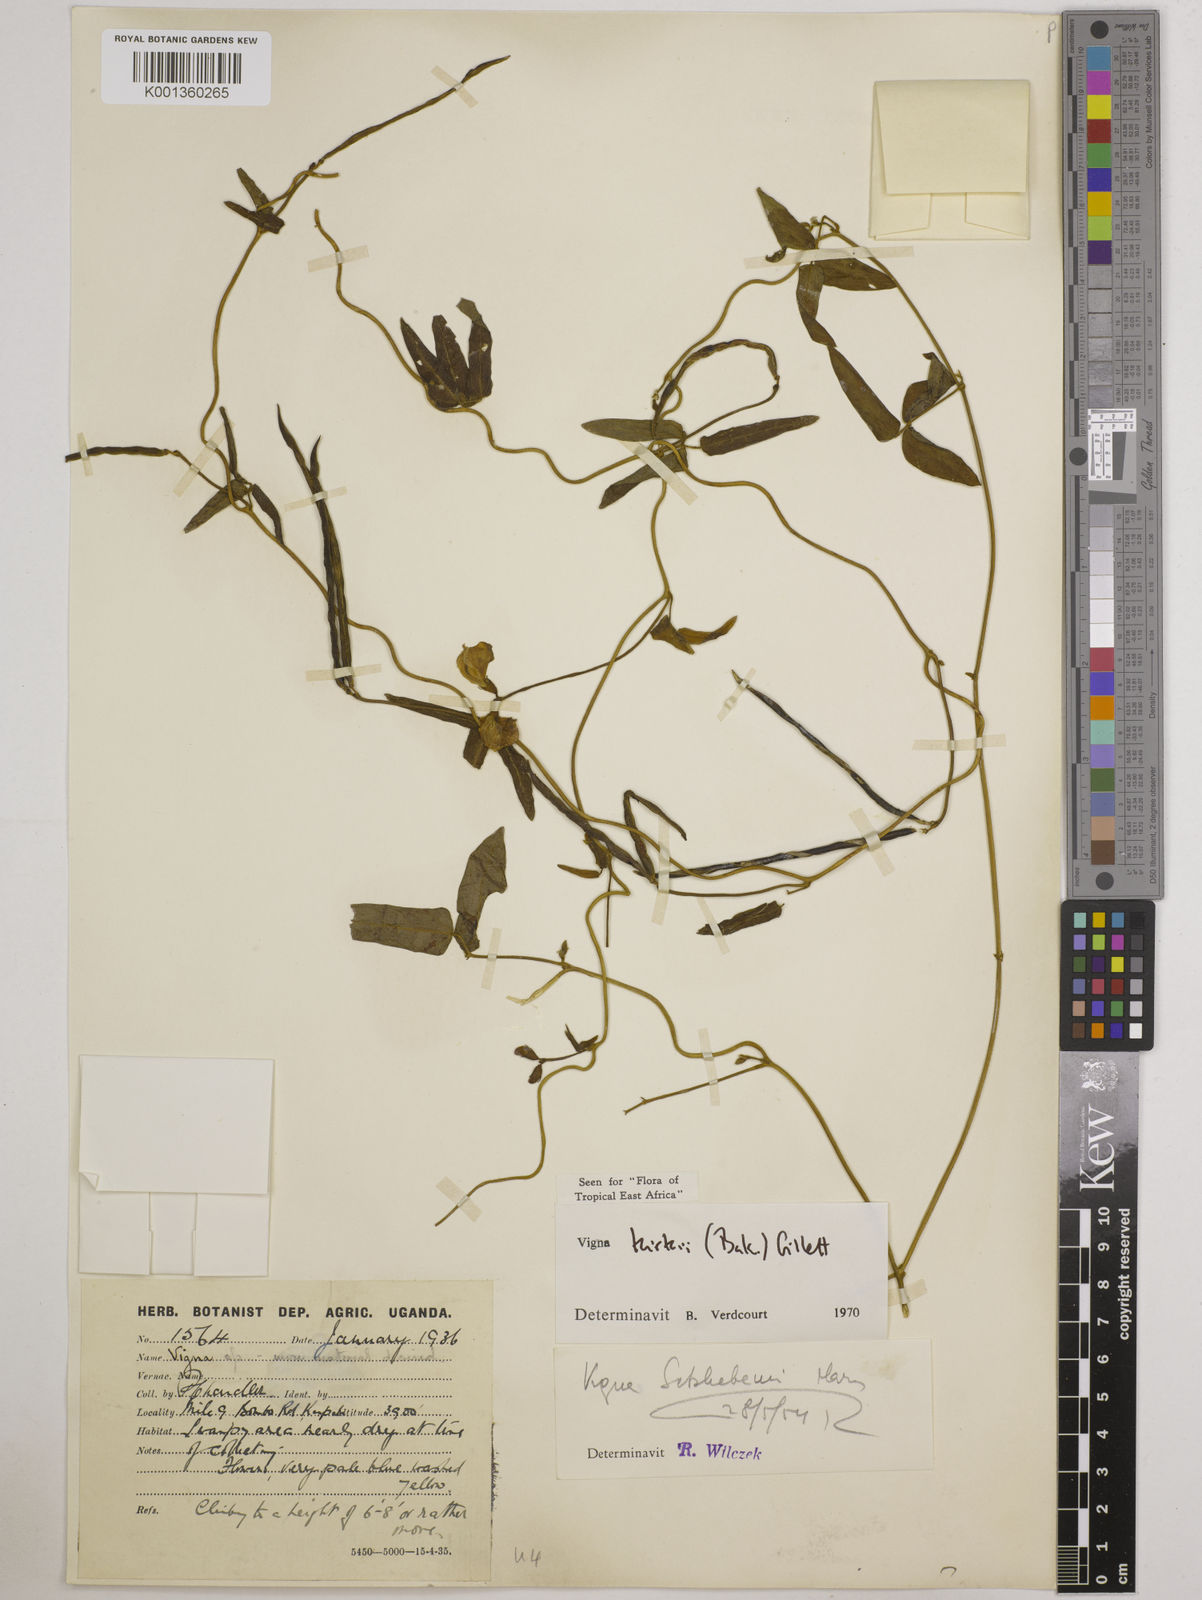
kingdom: Plantae
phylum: Tracheophyta
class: Magnoliopsida
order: Fabales
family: Fabaceae
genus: Vigna
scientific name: Vigna kirkii
